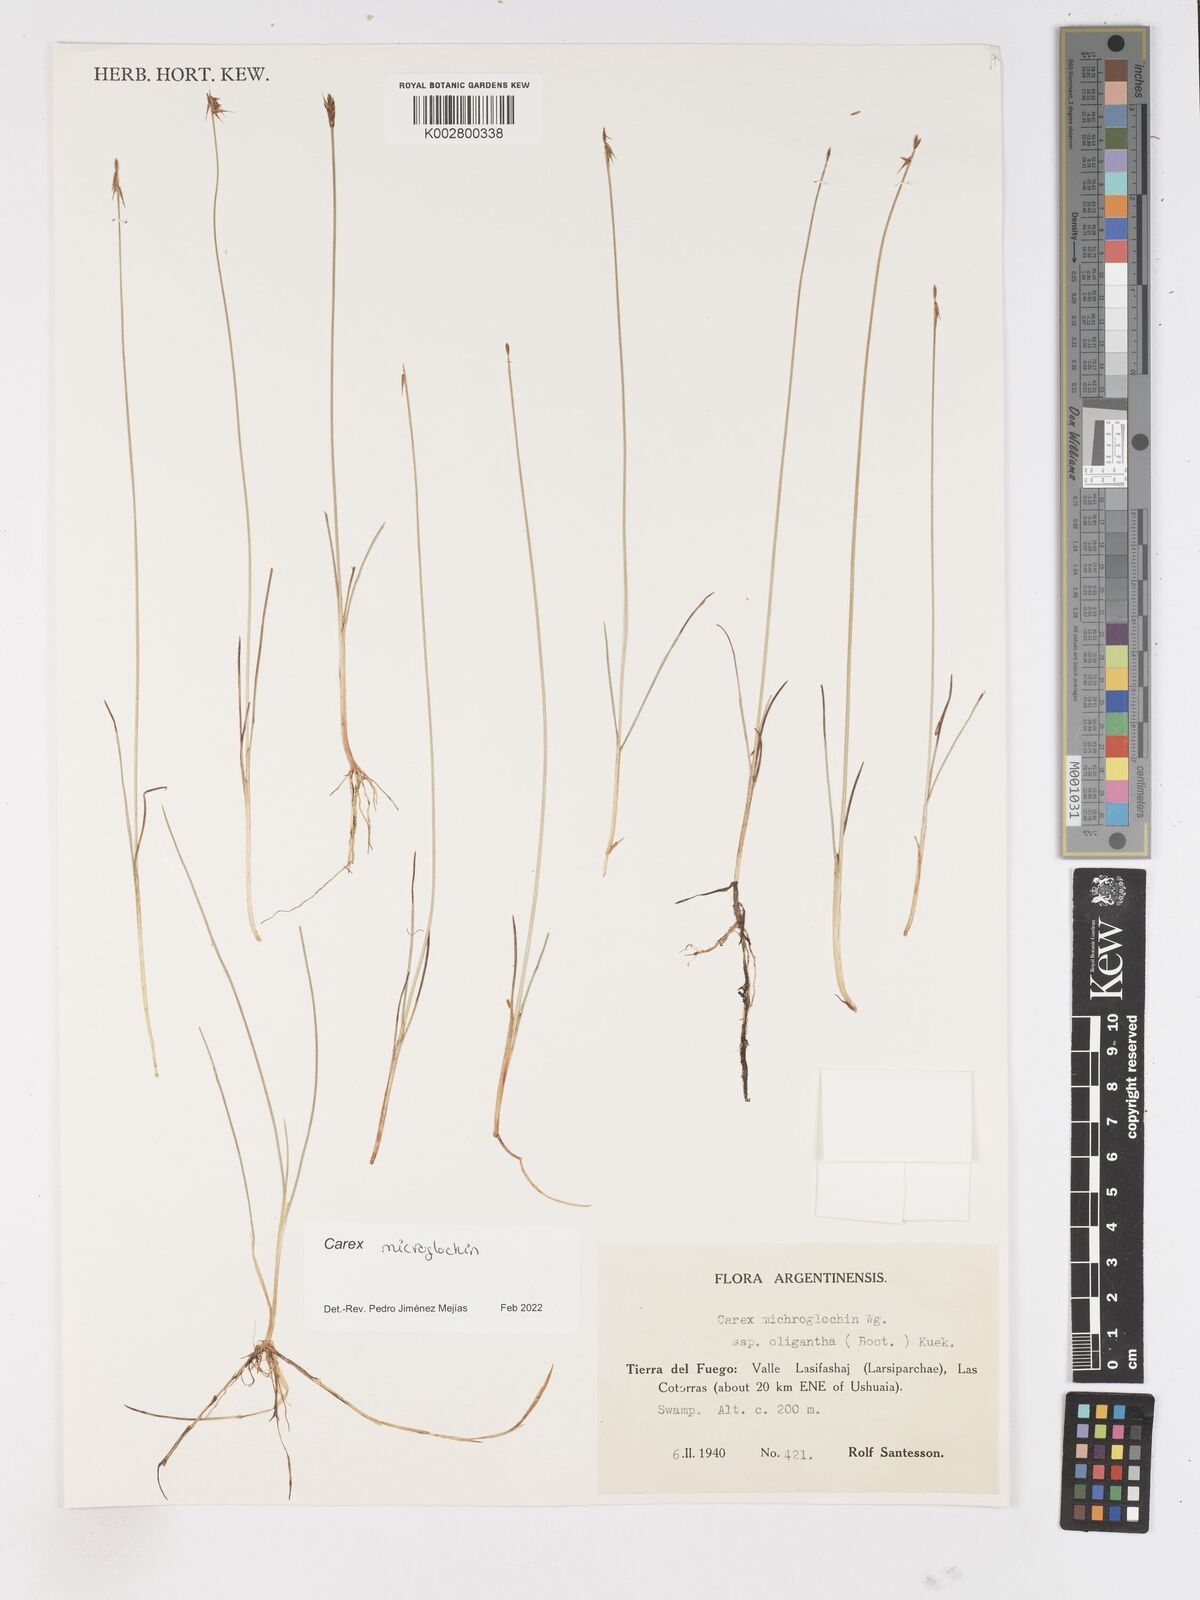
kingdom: Plantae
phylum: Tracheophyta
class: Liliopsida
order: Poales
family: Cyperaceae
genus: Carex
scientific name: Carex microglochin
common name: Bristle sedge
